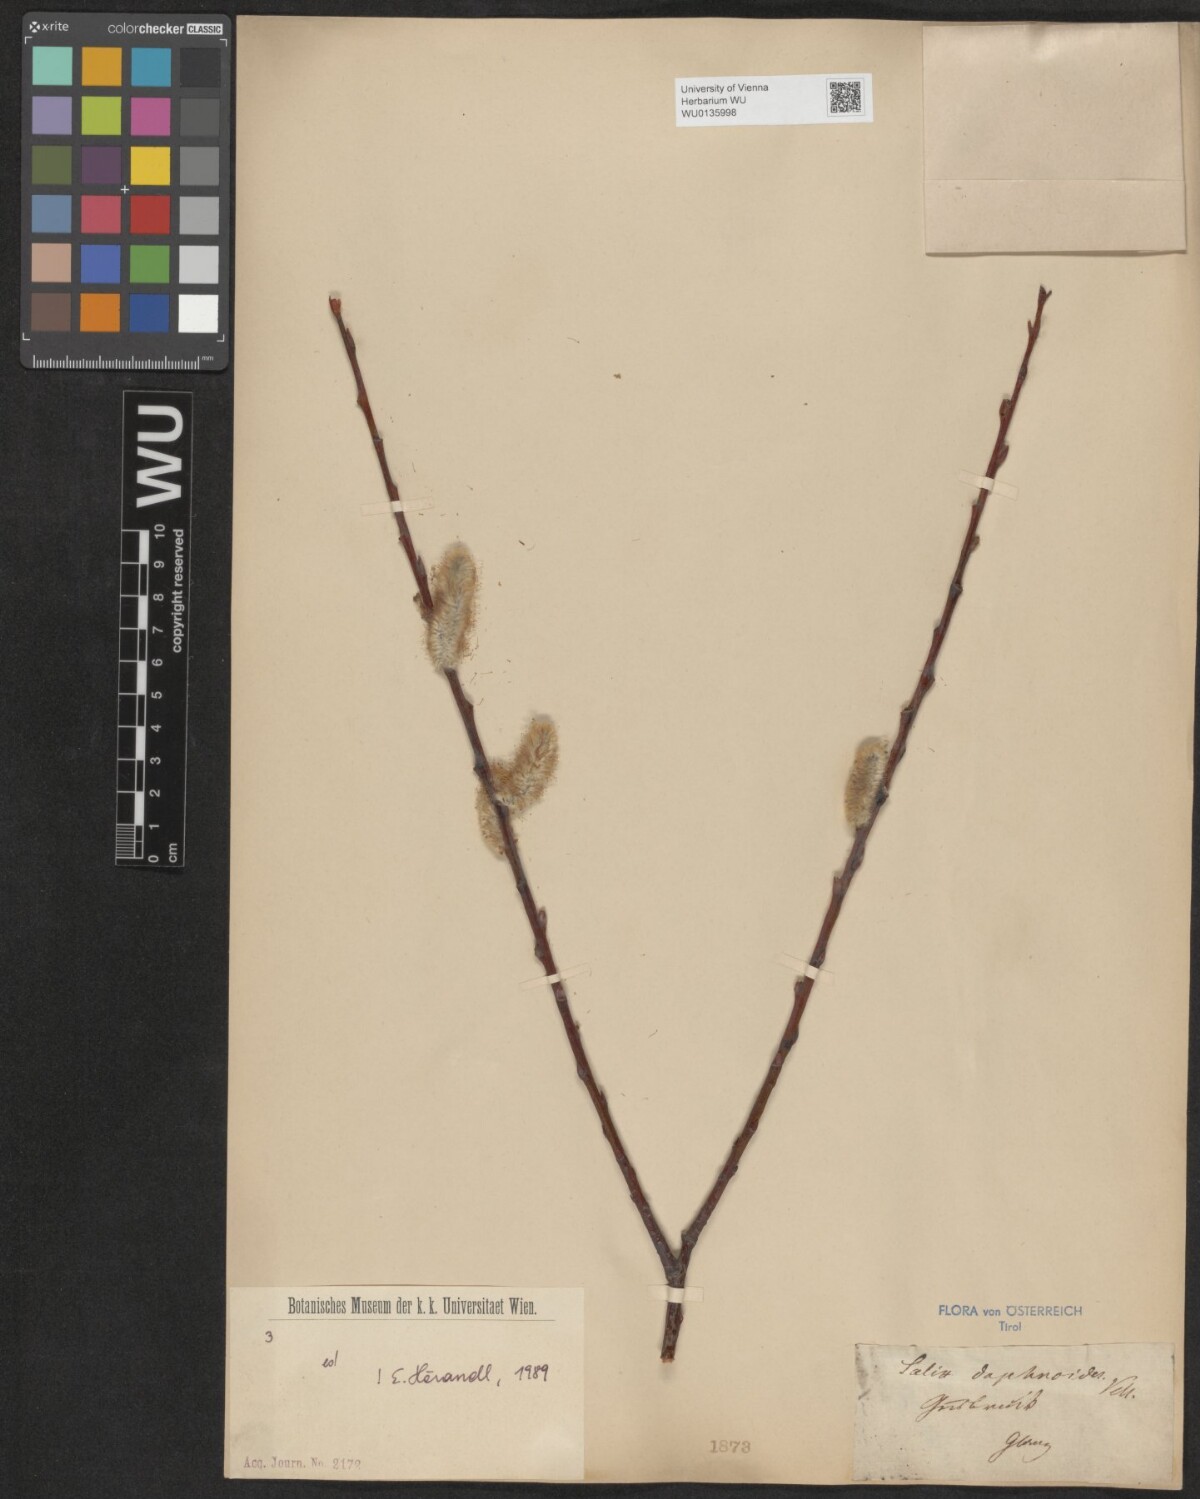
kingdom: Plantae
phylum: Tracheophyta
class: Magnoliopsida
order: Malpighiales
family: Salicaceae
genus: Salix
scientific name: Salix daphnoides
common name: European violet-willow
